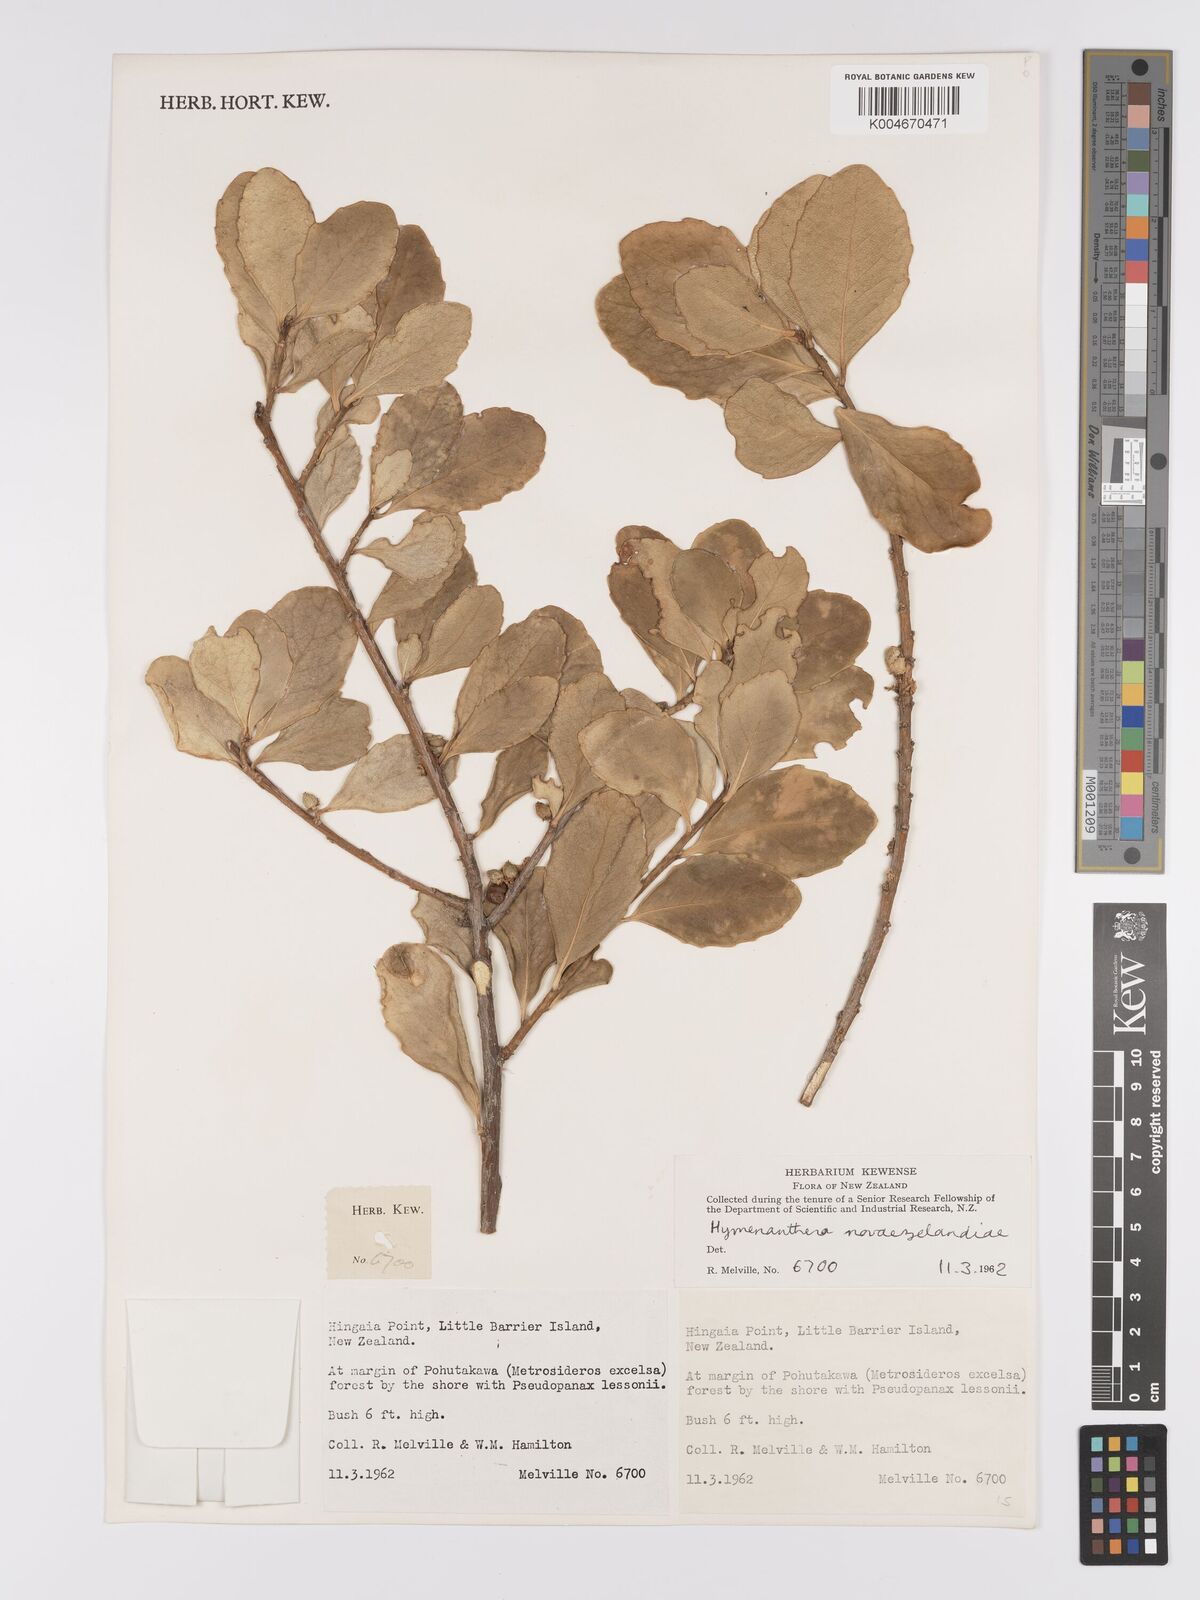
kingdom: Plantae
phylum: Tracheophyta
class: Magnoliopsida
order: Malpighiales
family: Violaceae
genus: Melicytus
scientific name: Melicytus novae-zelandiae
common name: Coastal mahoe
